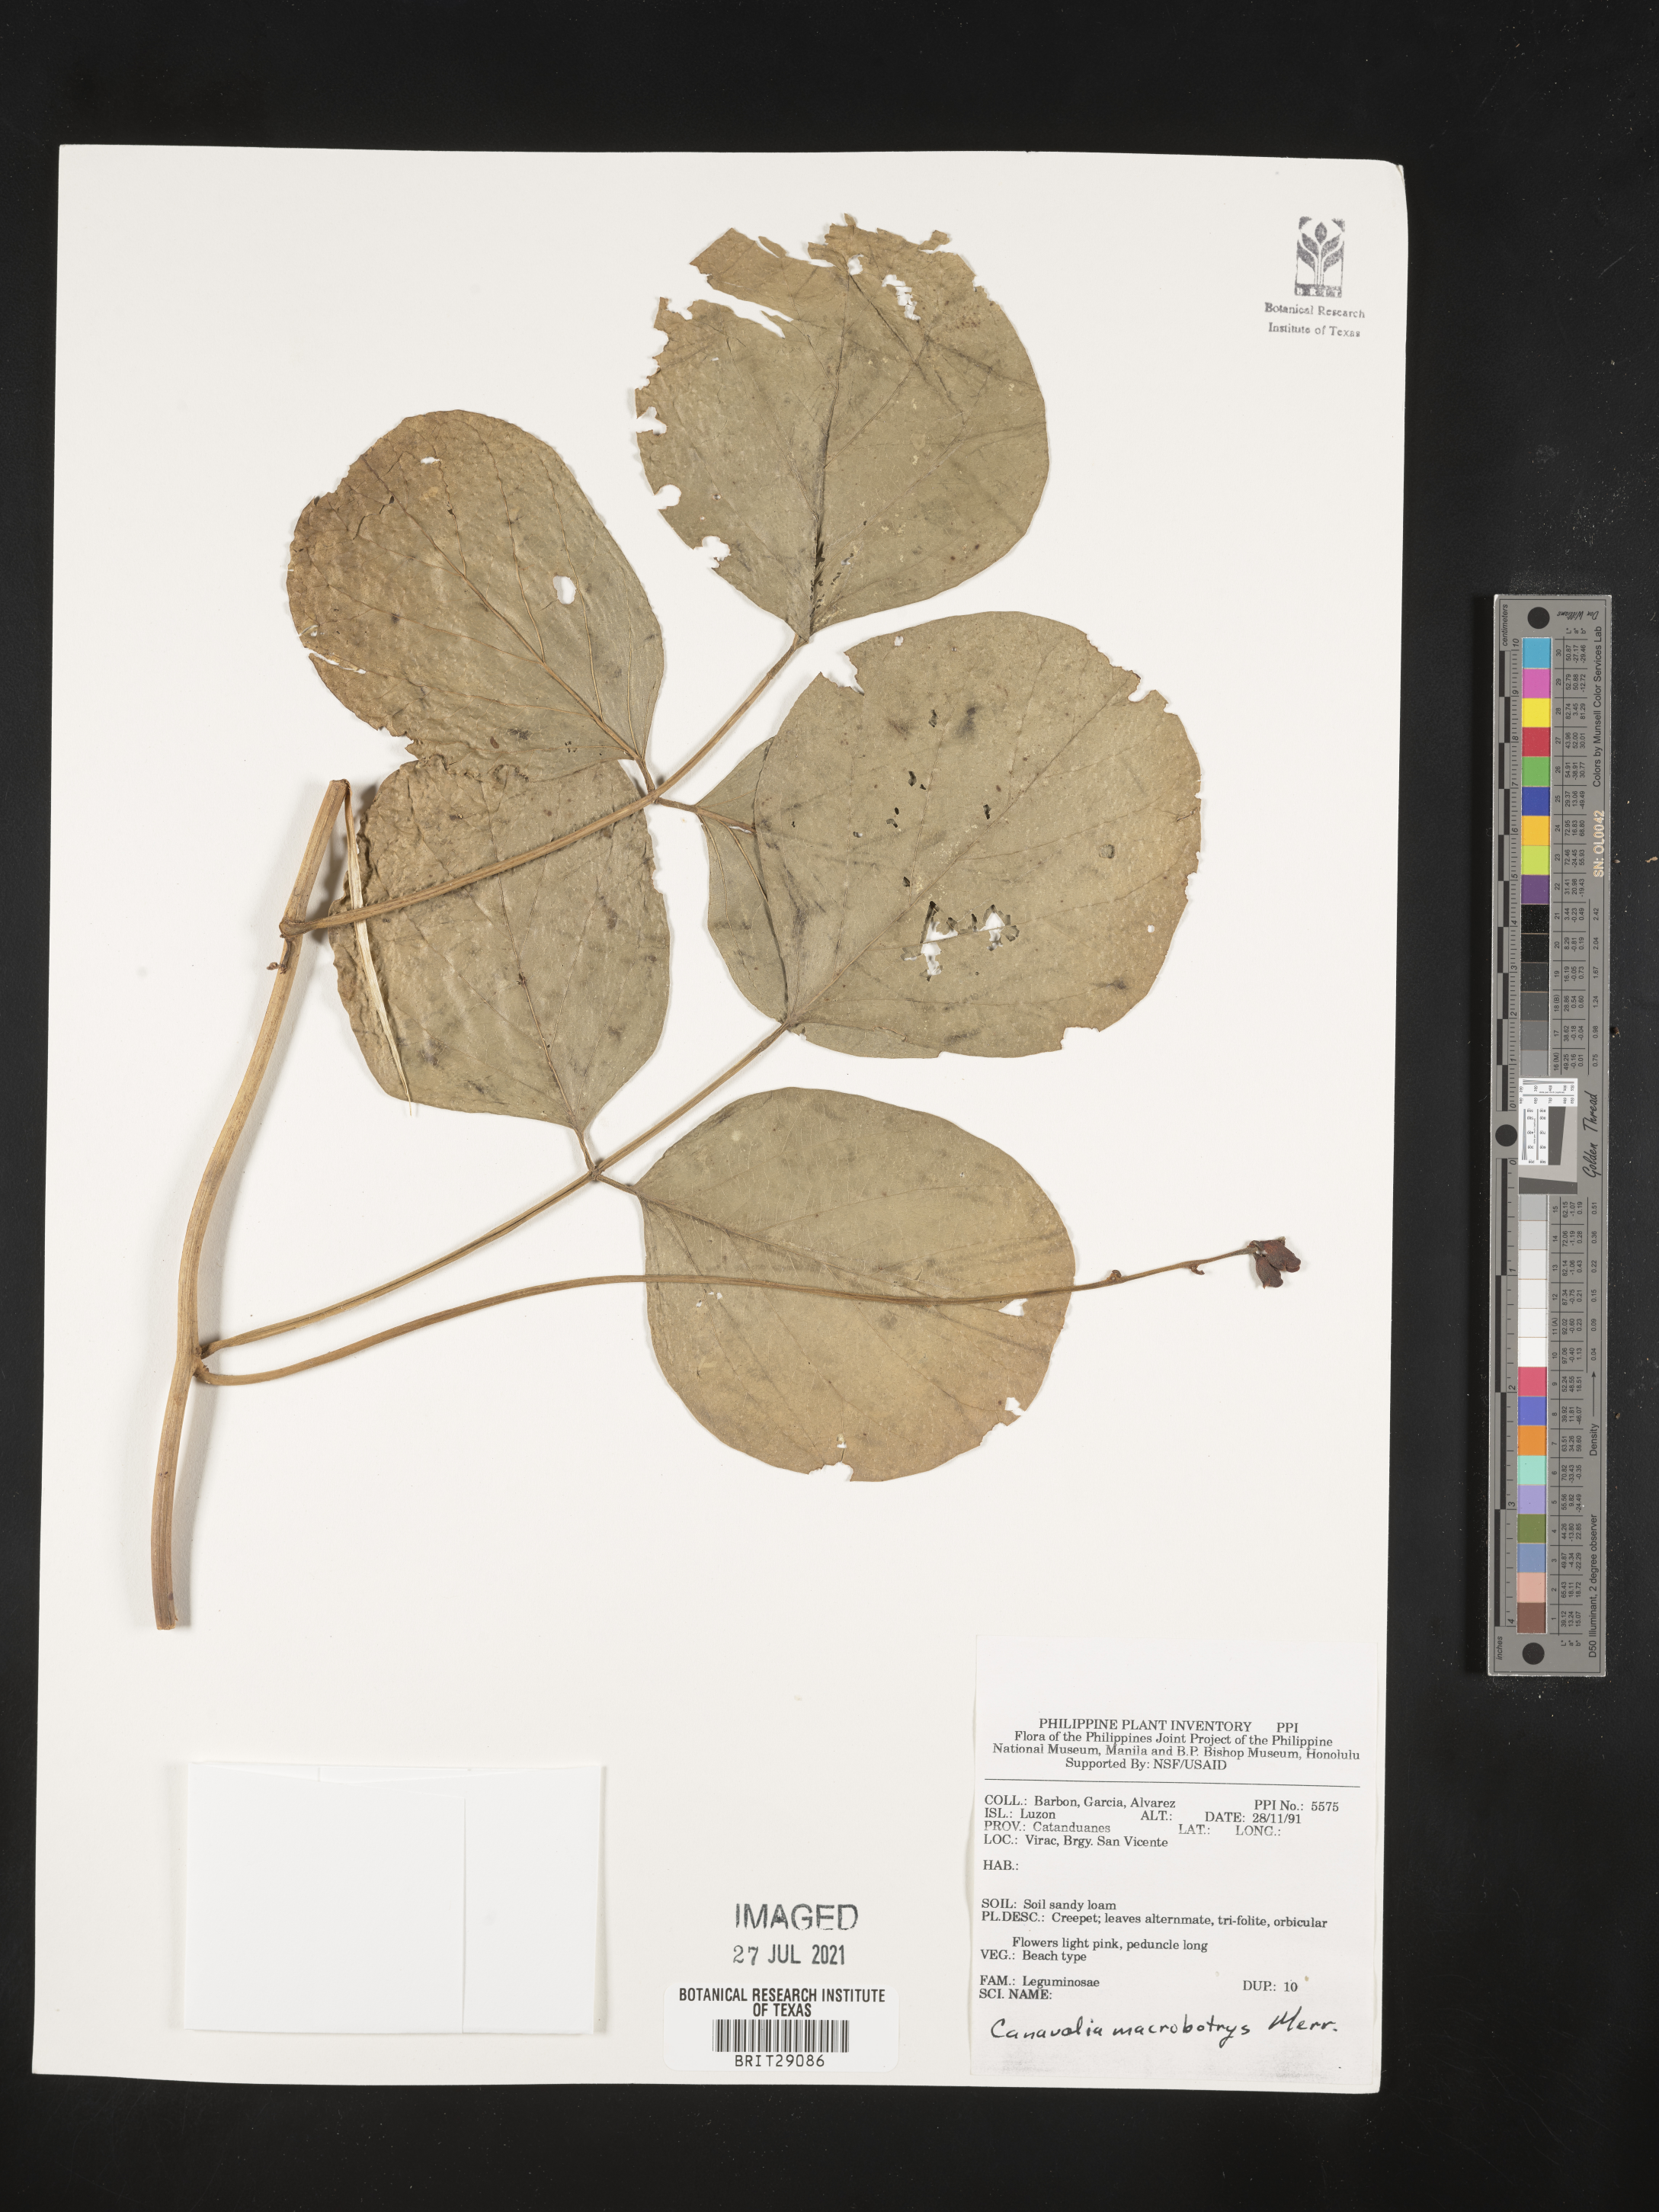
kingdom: Plantae
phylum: Tracheophyta
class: Magnoliopsida
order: Fabales
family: Fabaceae
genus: Canavalia
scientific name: Canavalia macrobotrys
